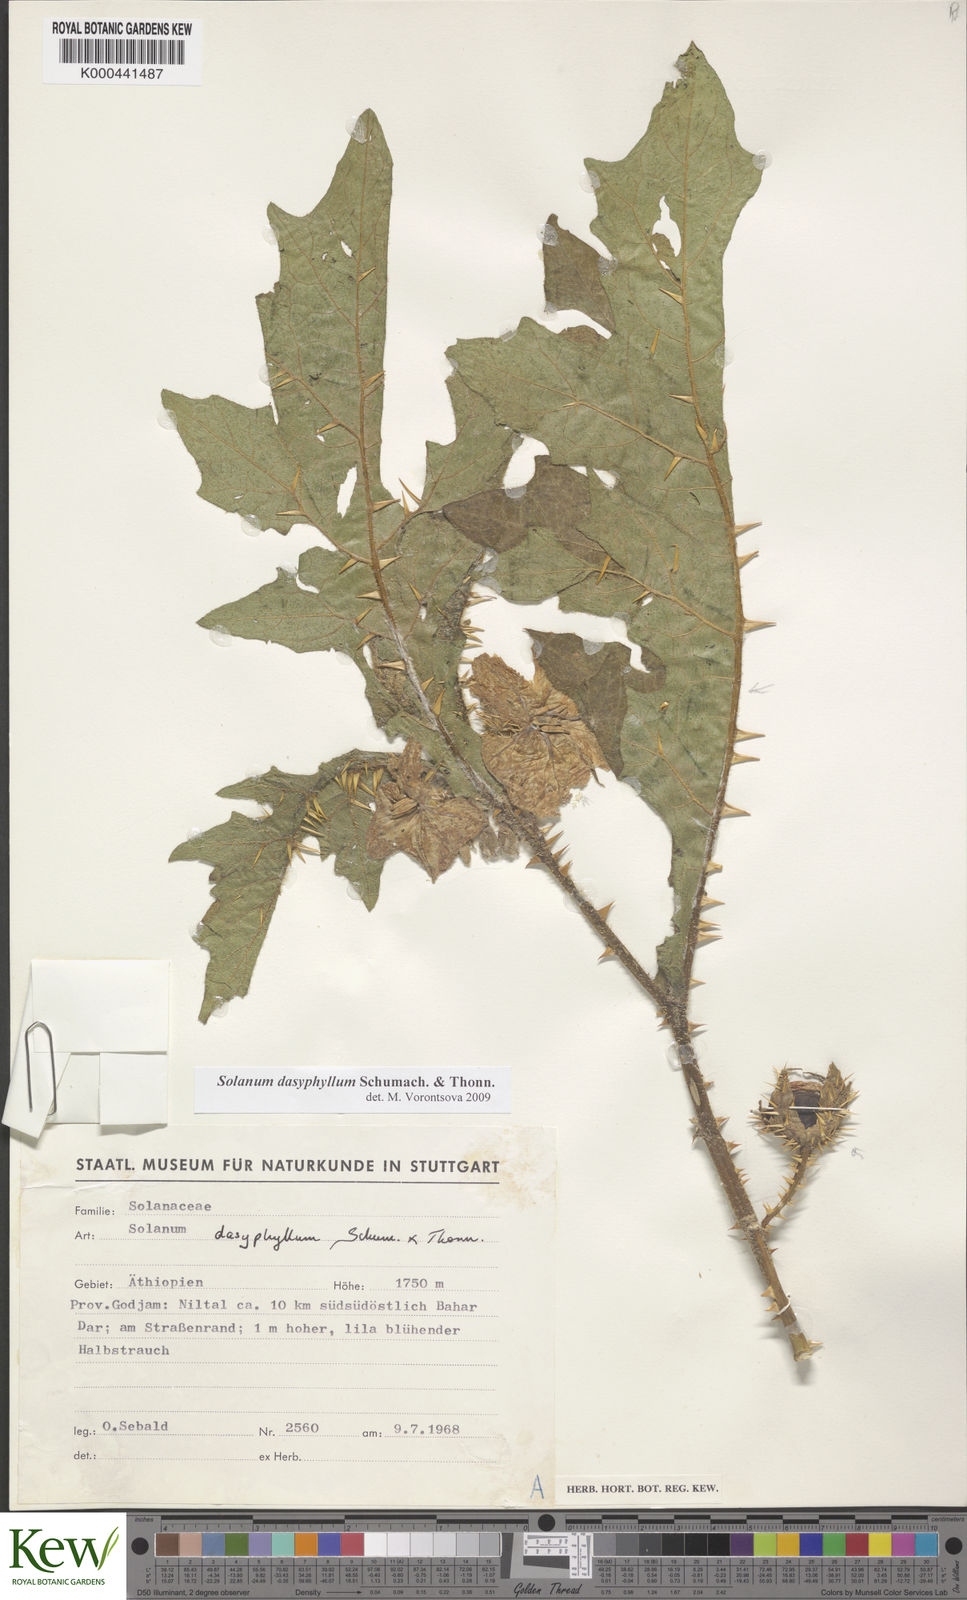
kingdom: Plantae
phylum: Tracheophyta
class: Magnoliopsida
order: Solanales
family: Solanaceae
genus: Solanum
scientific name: Solanum dasyphyllum
